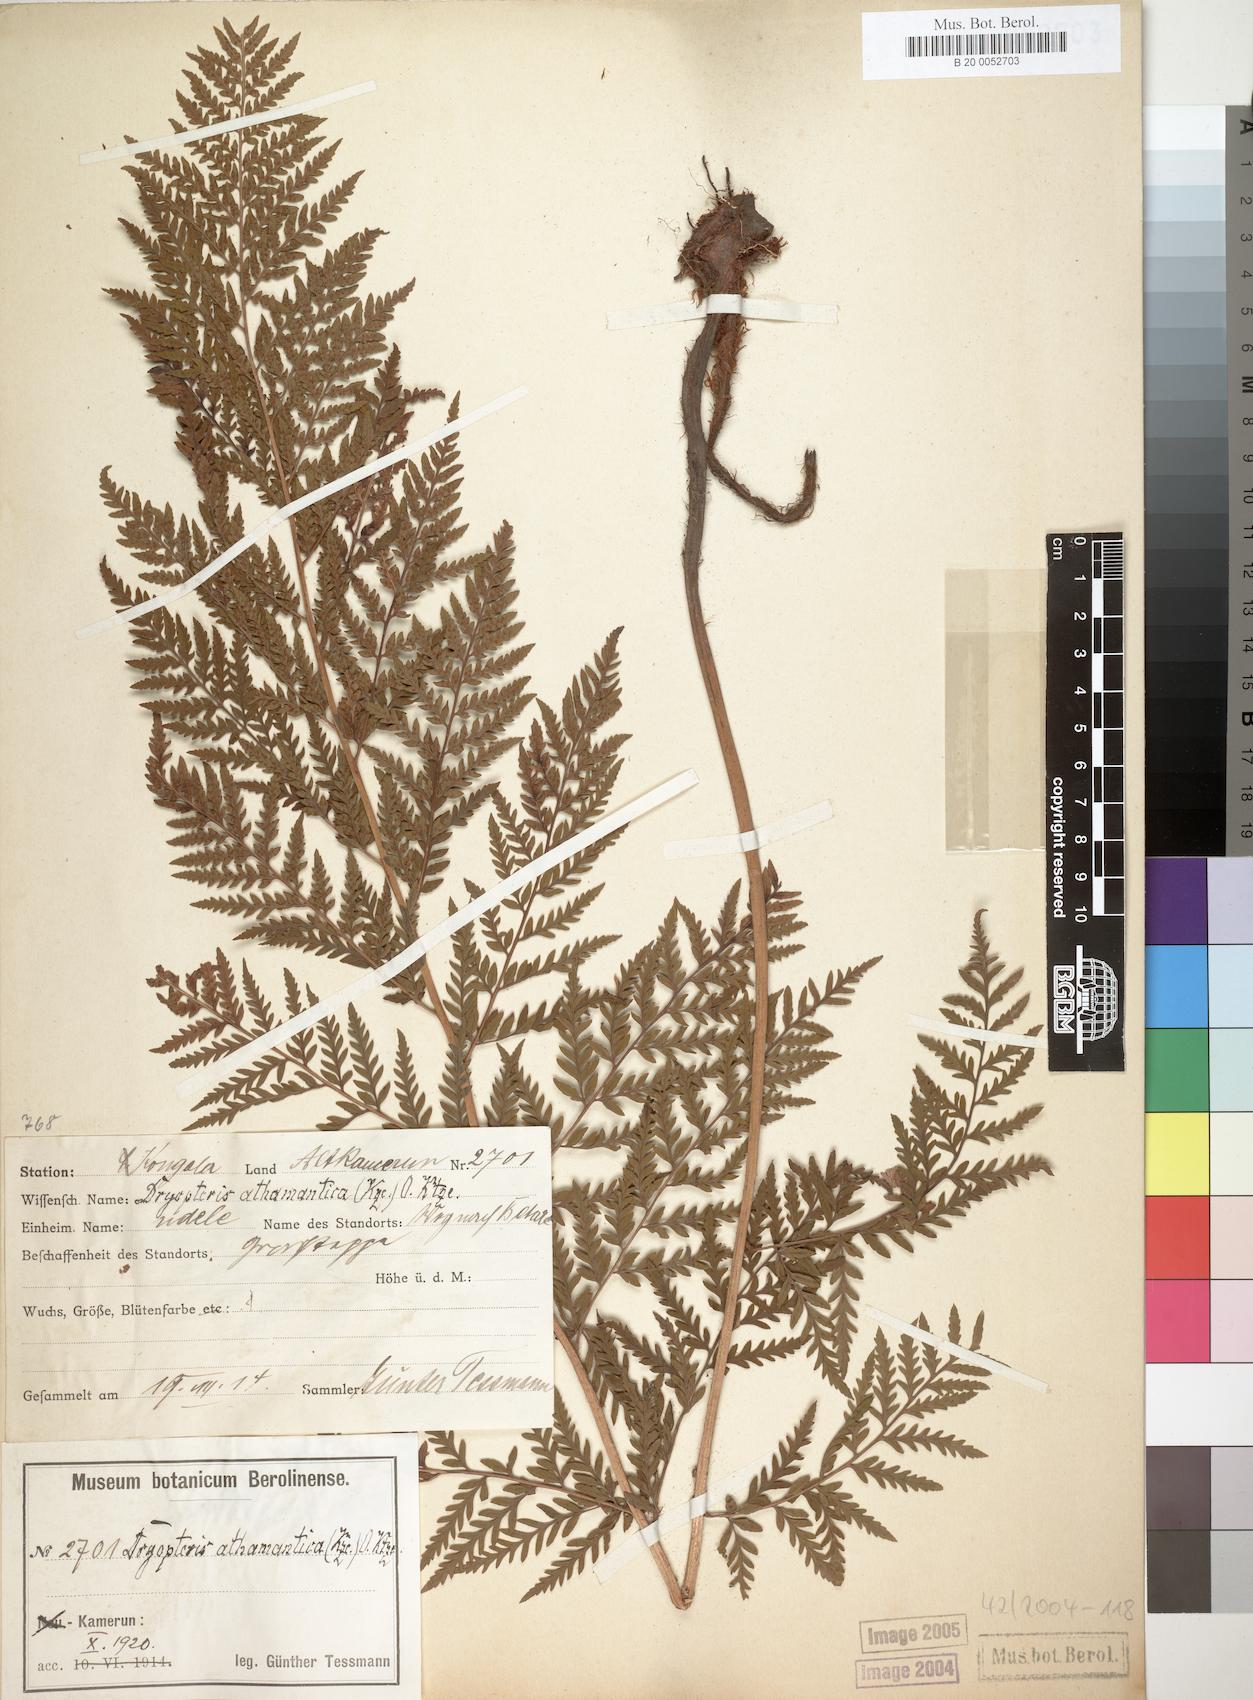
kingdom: Plantae
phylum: Tracheophyta
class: Polypodiopsida
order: Polypodiales
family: Dryopteridaceae
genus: Dryopteris
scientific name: Dryopteris athamantica
